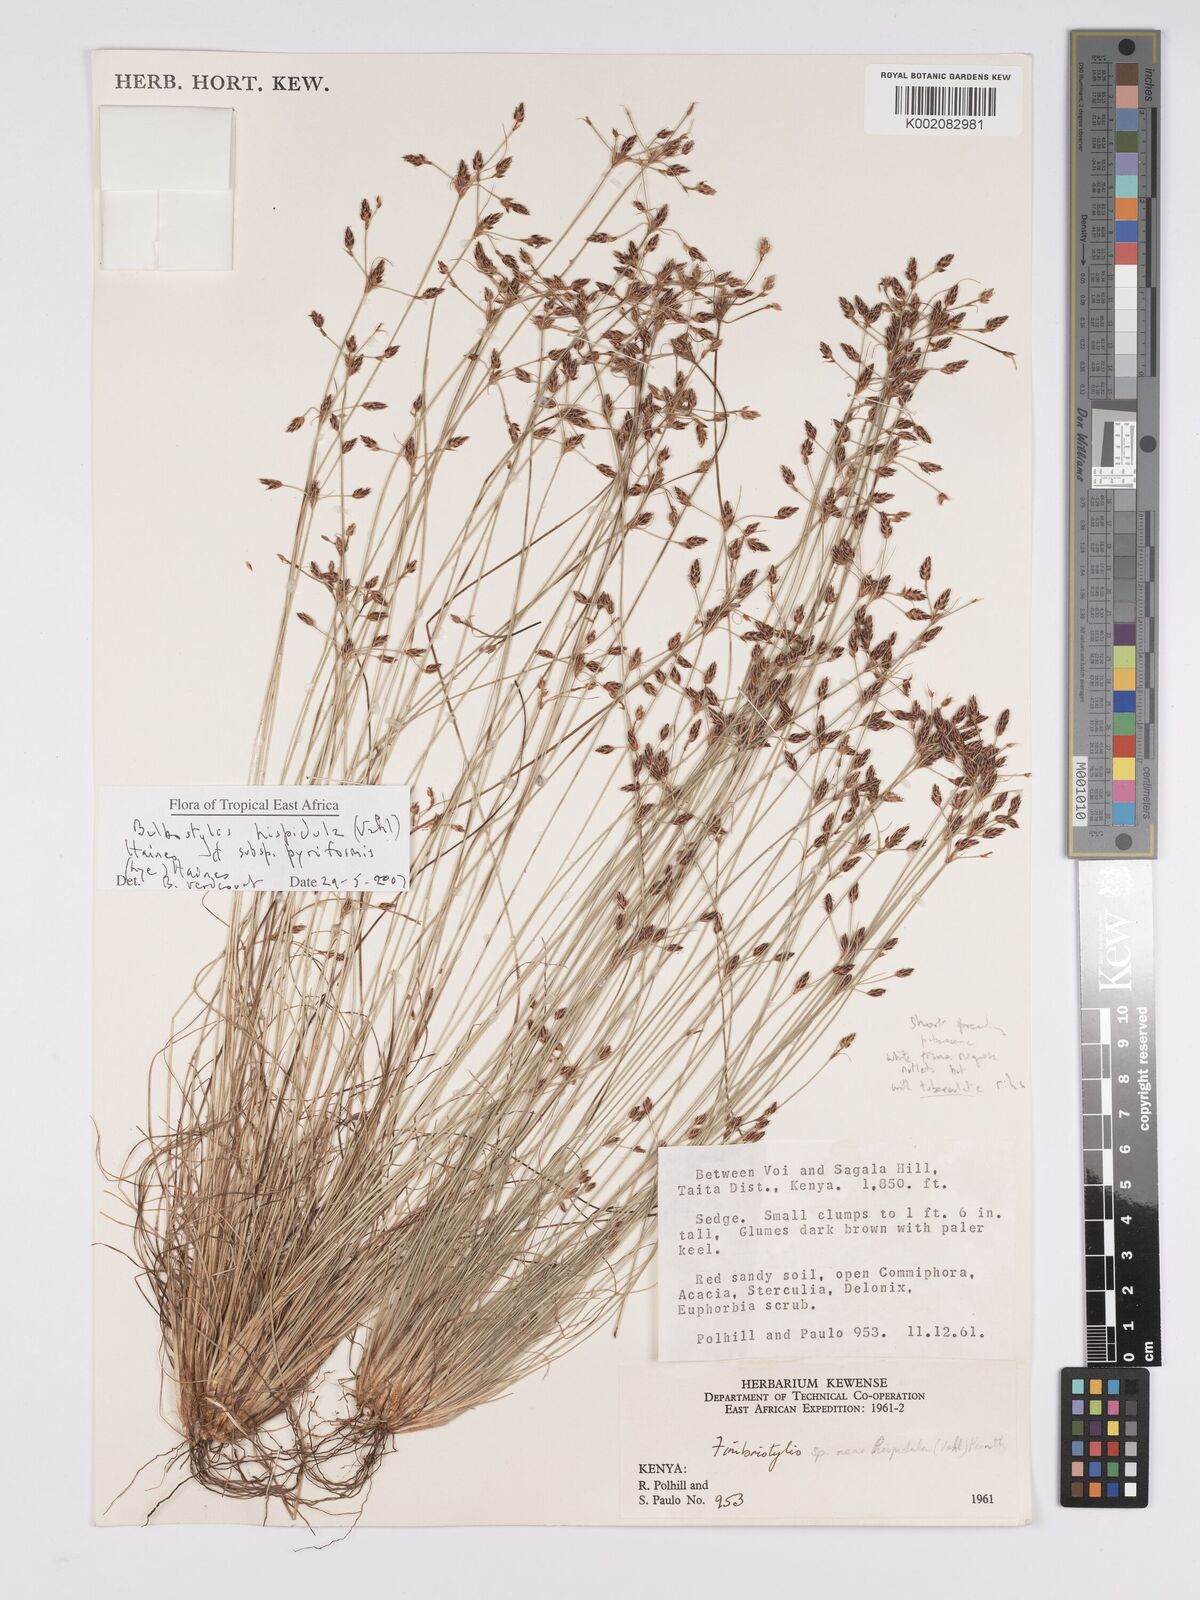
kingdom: Plantae
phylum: Tracheophyta
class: Liliopsida
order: Poales
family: Cyperaceae
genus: Bulbostylis
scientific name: Bulbostylis hispidula
